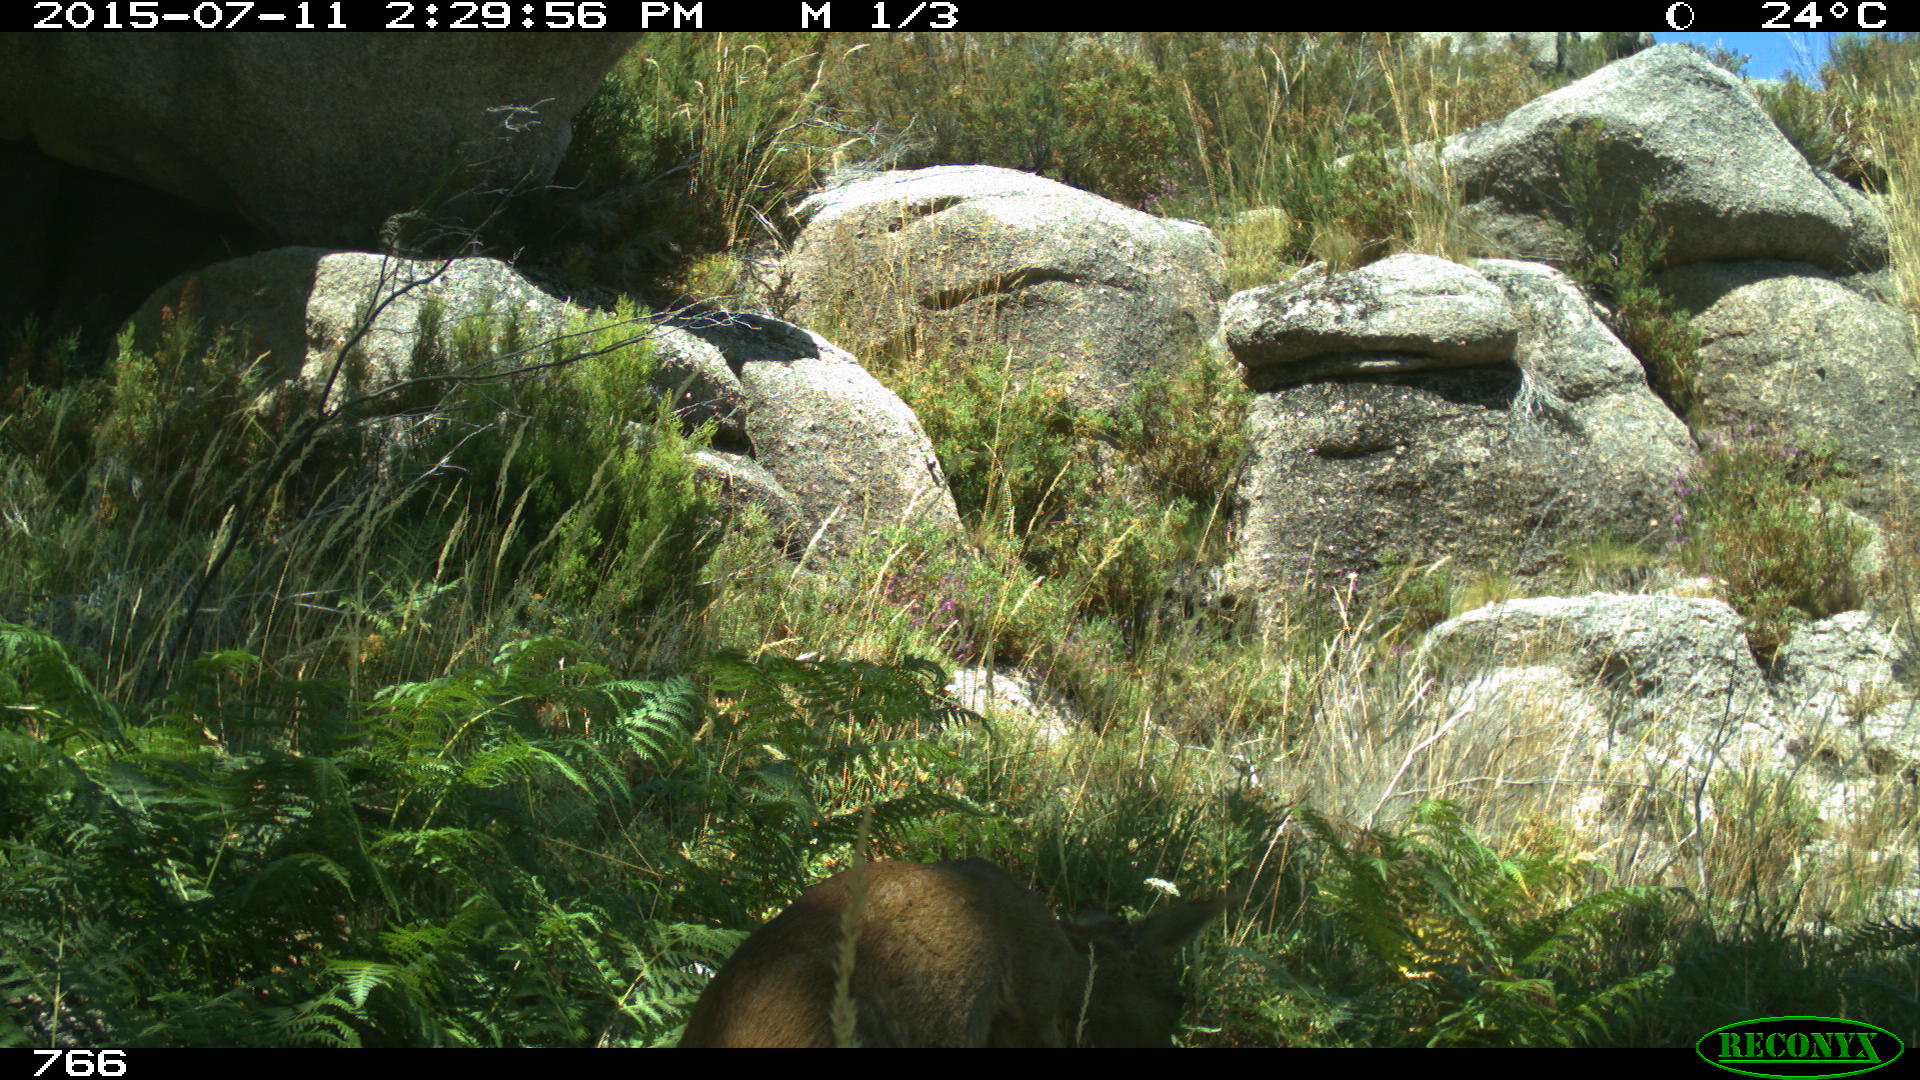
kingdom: Animalia
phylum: Chordata
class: Mammalia
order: Artiodactyla
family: Cervidae
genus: Capreolus
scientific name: Capreolus capreolus
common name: Western roe deer
